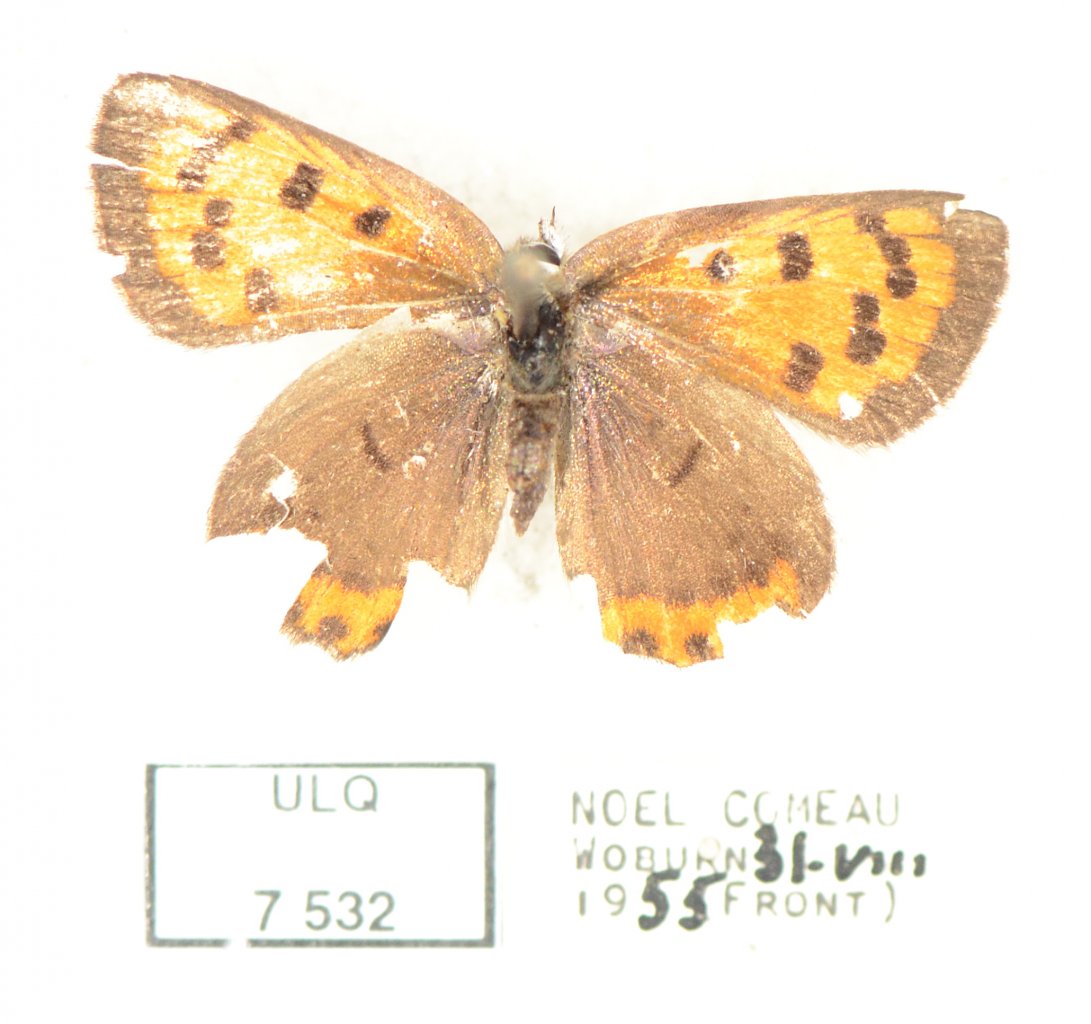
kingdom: Animalia
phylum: Arthropoda
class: Insecta
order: Lepidoptera
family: Sesiidae
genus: Sesia
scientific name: Sesia Lycaena hyllus
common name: Bronze Copper
